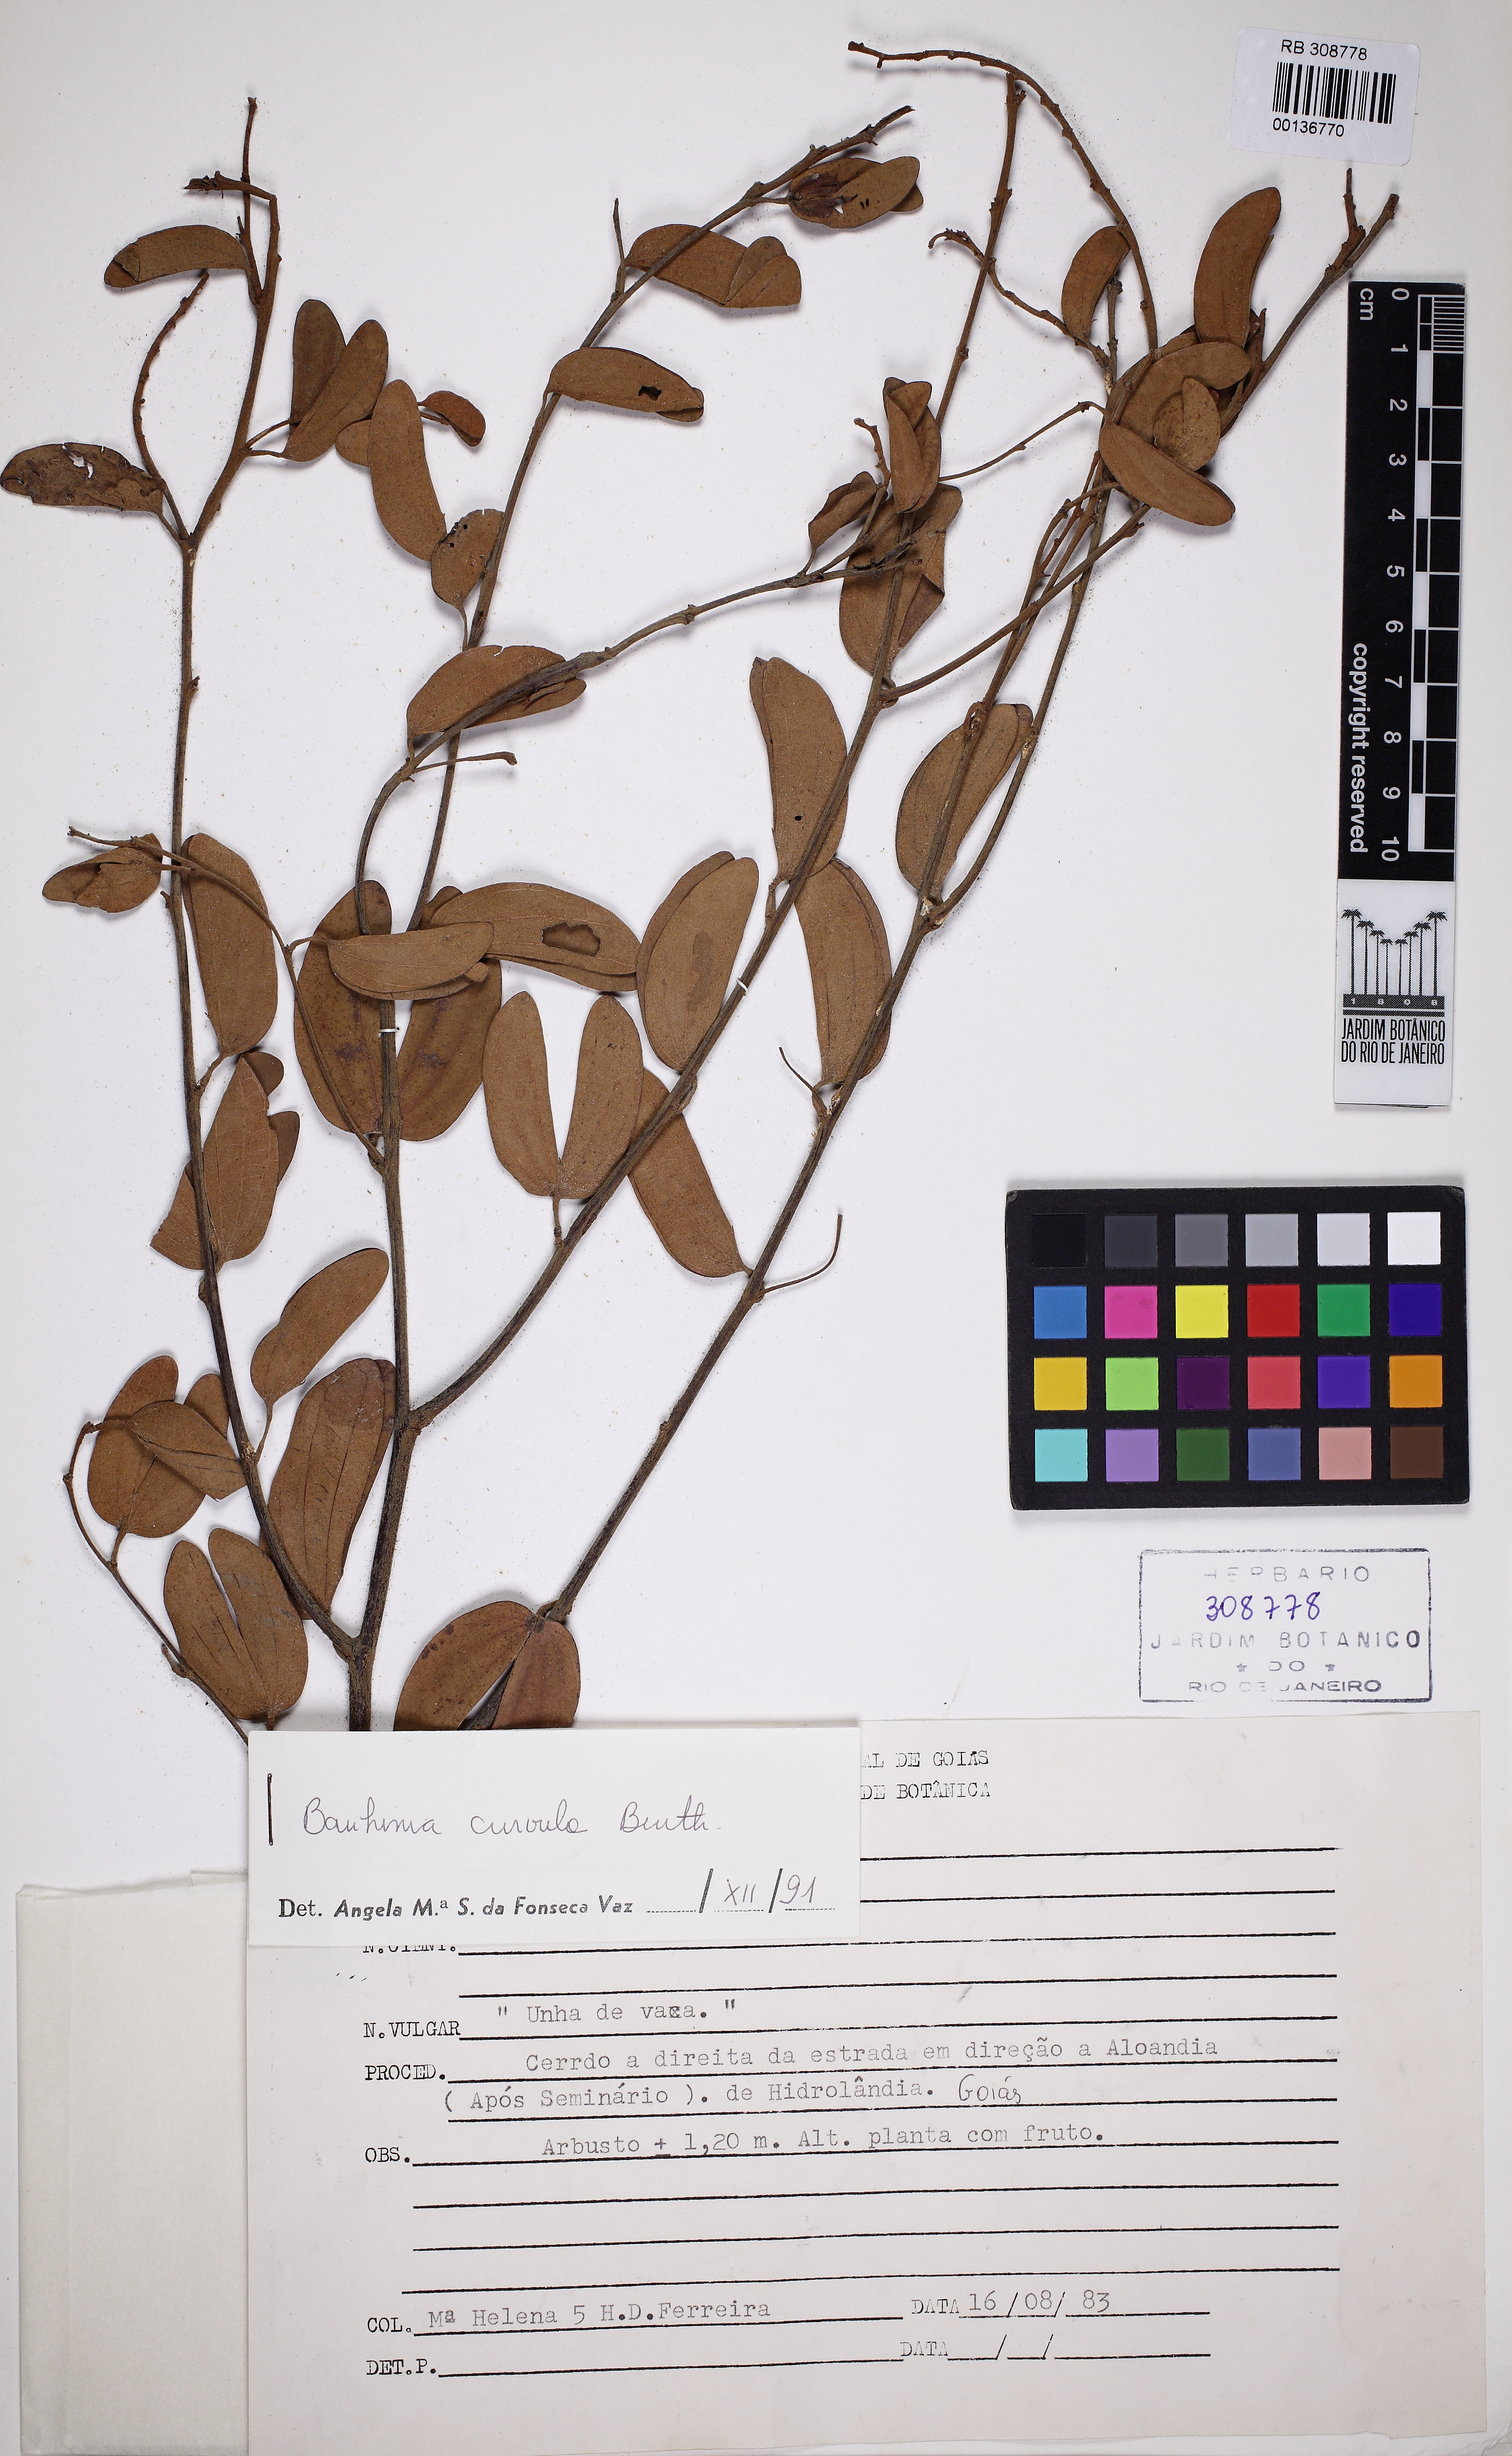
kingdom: Plantae
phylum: Tracheophyta
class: Magnoliopsida
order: Fabales
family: Fabaceae
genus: Bauhinia
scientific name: Bauhinia curvula
